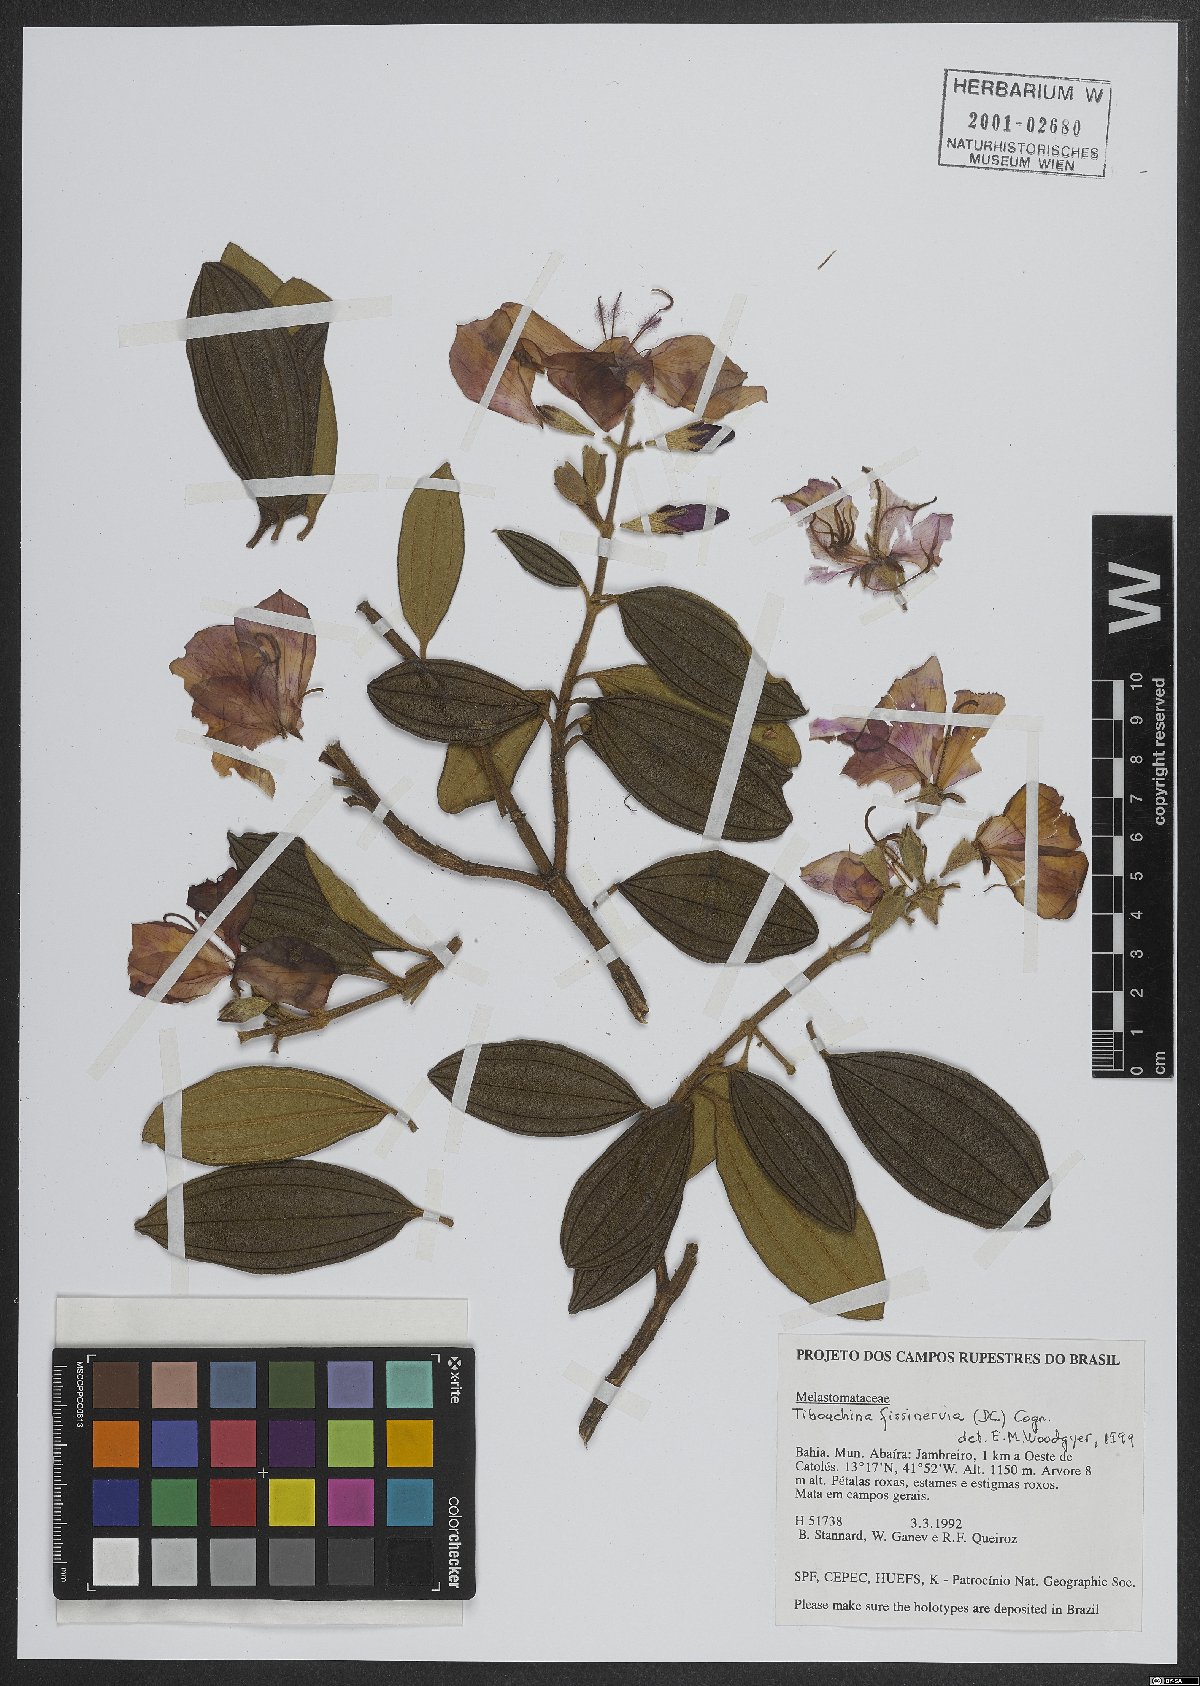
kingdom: Plantae
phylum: Tracheophyta
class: Magnoliopsida
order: Myrtales
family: Melastomataceae
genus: Pleroma
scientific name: Pleroma fissinervium
